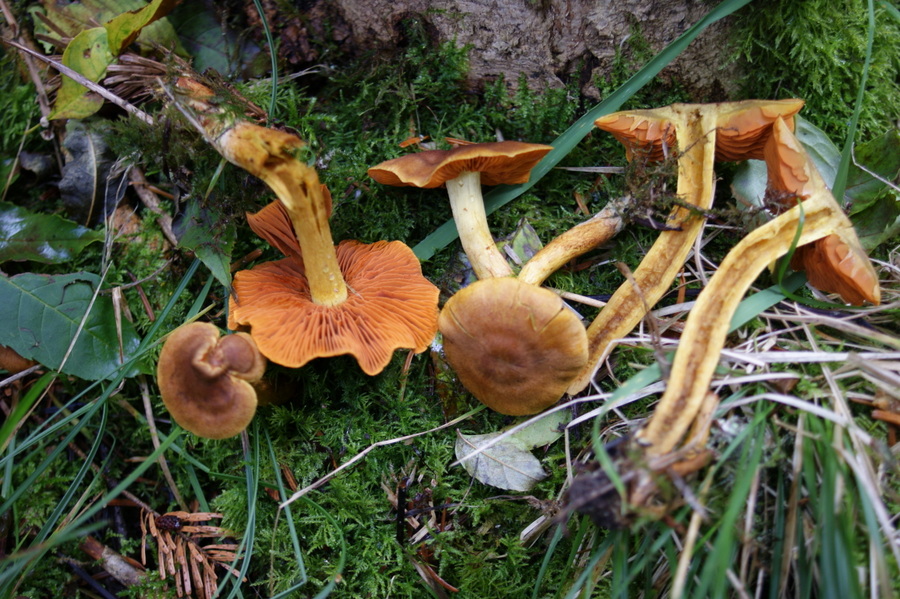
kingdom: Fungi
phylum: Basidiomycota
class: Agaricomycetes
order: Agaricales
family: Cortinariaceae
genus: Cortinarius
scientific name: Cortinarius malicorius
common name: grønkødet slørhat
